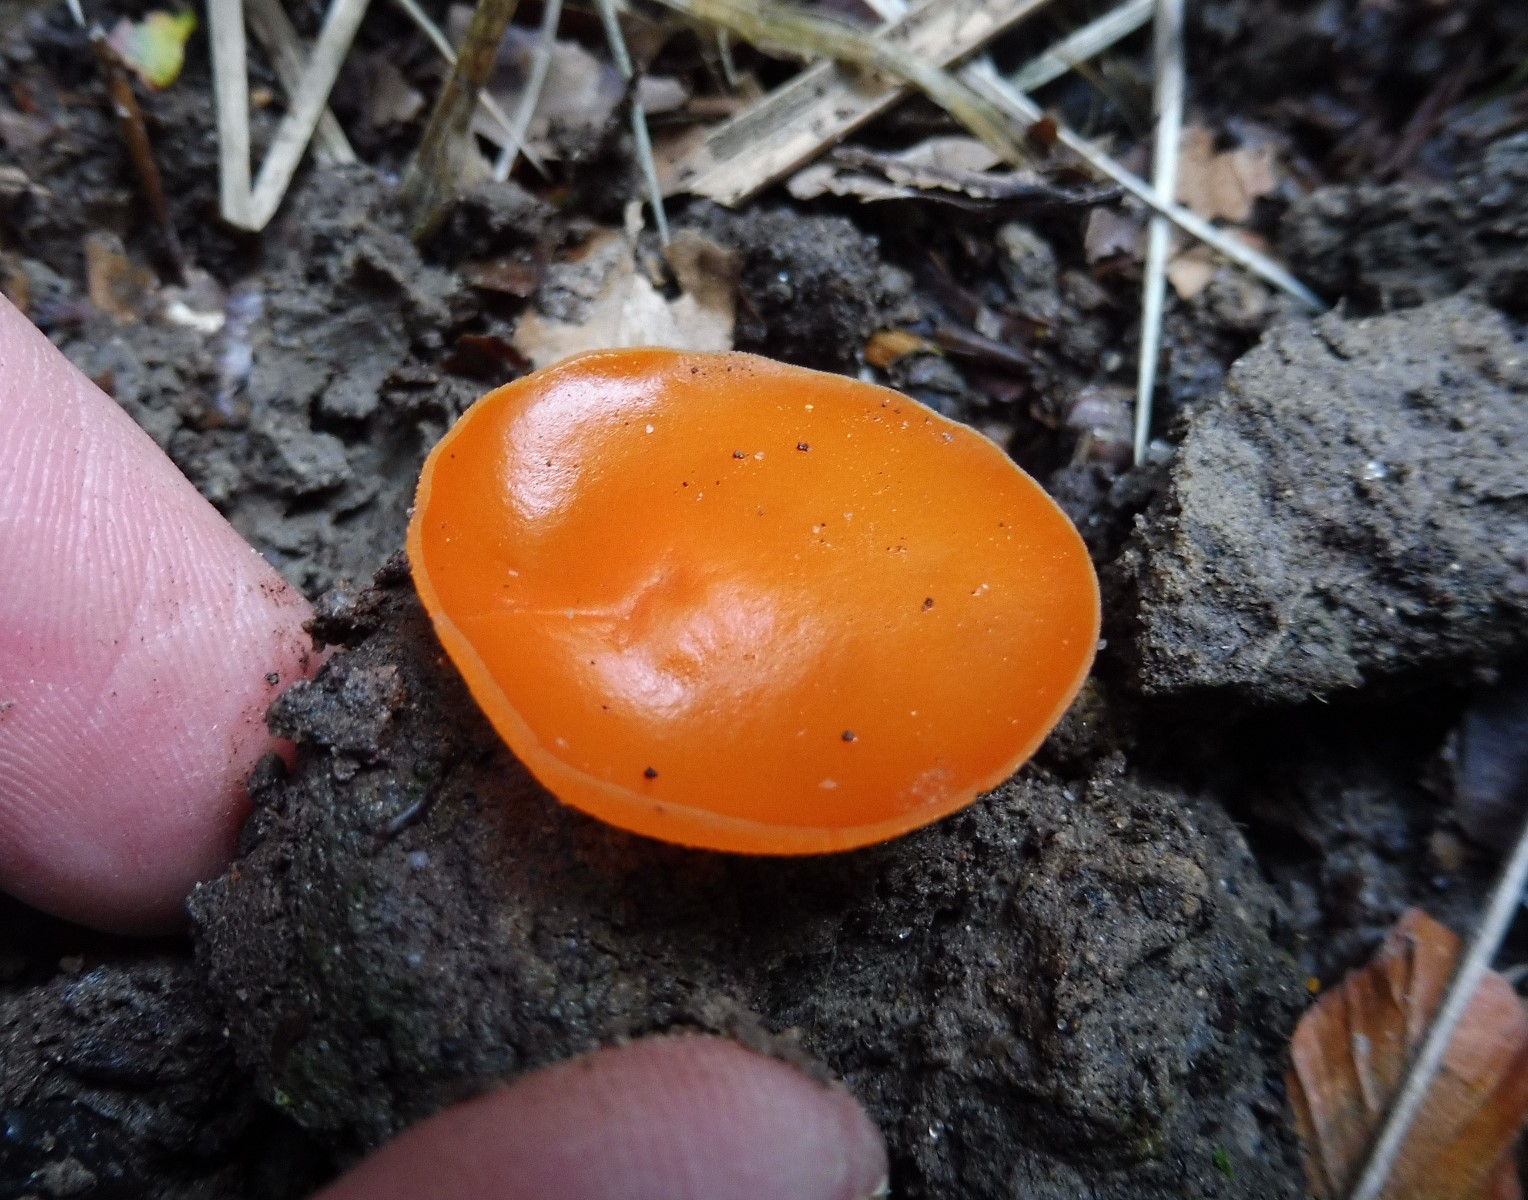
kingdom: Fungi
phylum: Ascomycota
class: Pezizomycetes
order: Pezizales
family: Pyronemataceae
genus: Aleuria
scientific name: Aleuria aurantia
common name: almindelig orangebæger
